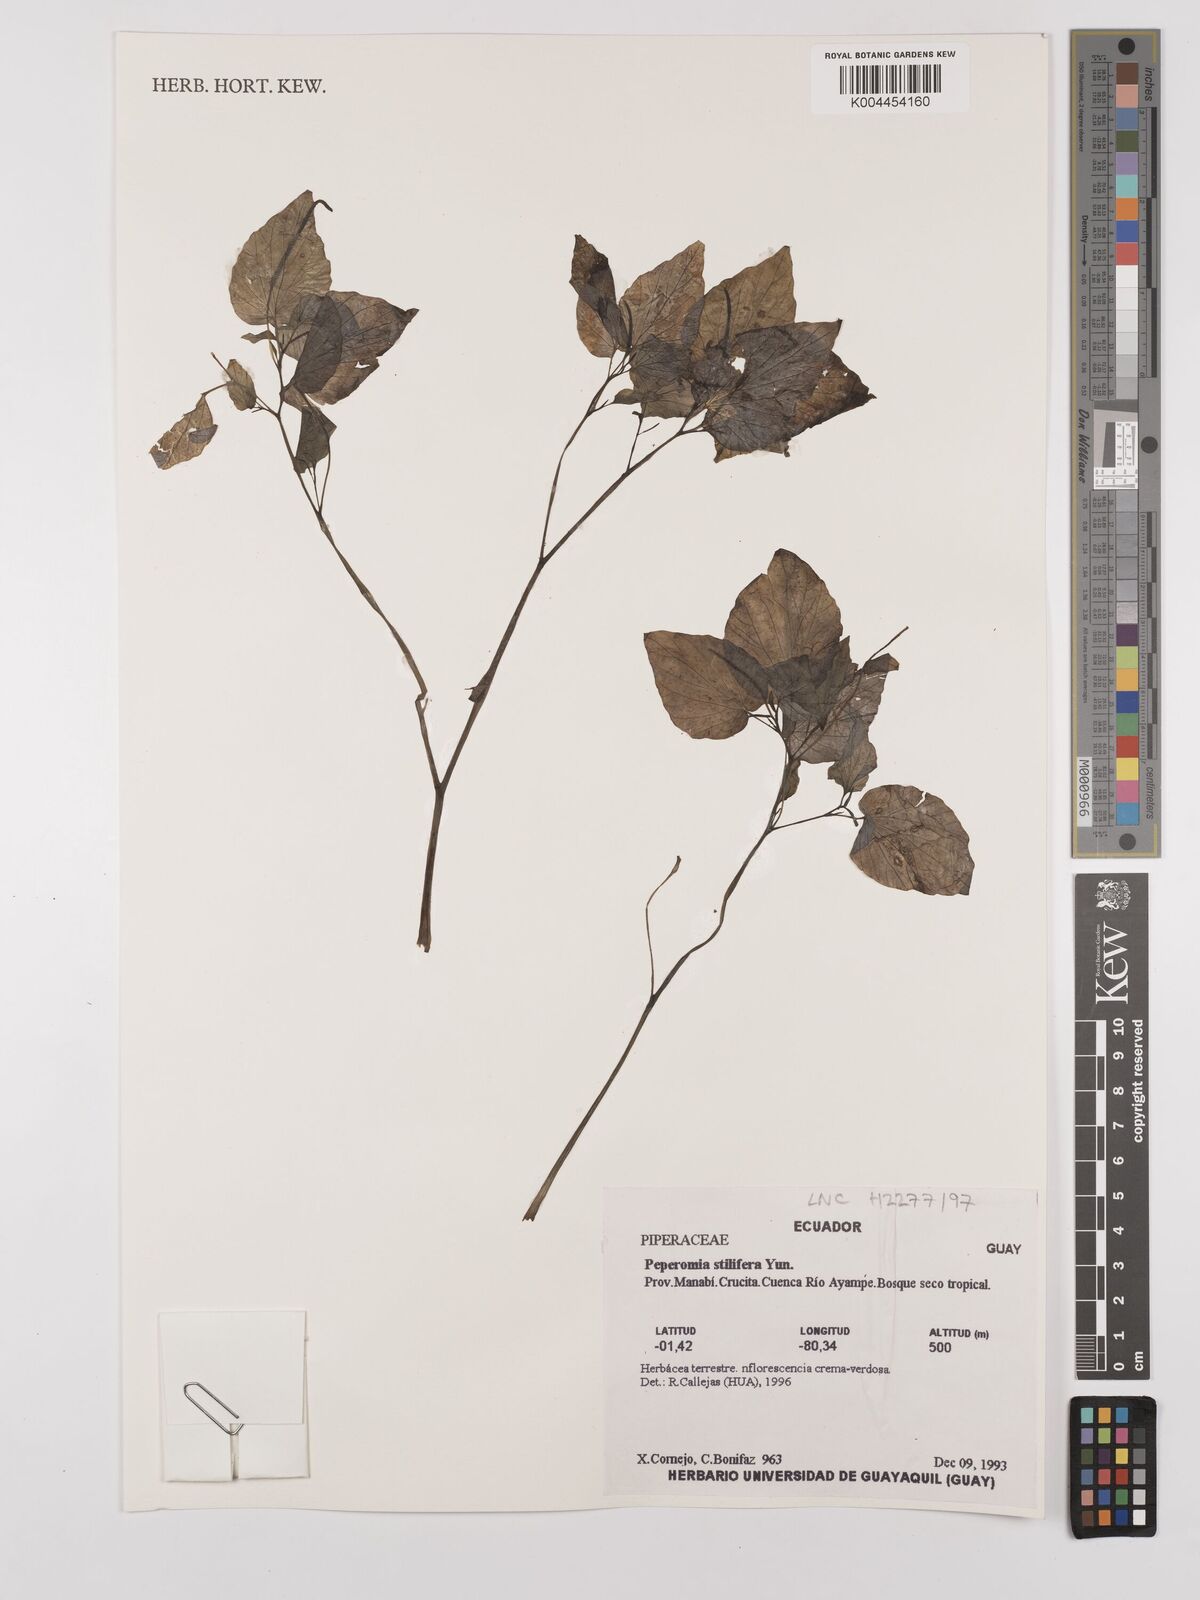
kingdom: Plantae
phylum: Tracheophyta
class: Magnoliopsida
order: Piperales
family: Piperaceae
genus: Peperomia
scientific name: Peperomia stilifera
